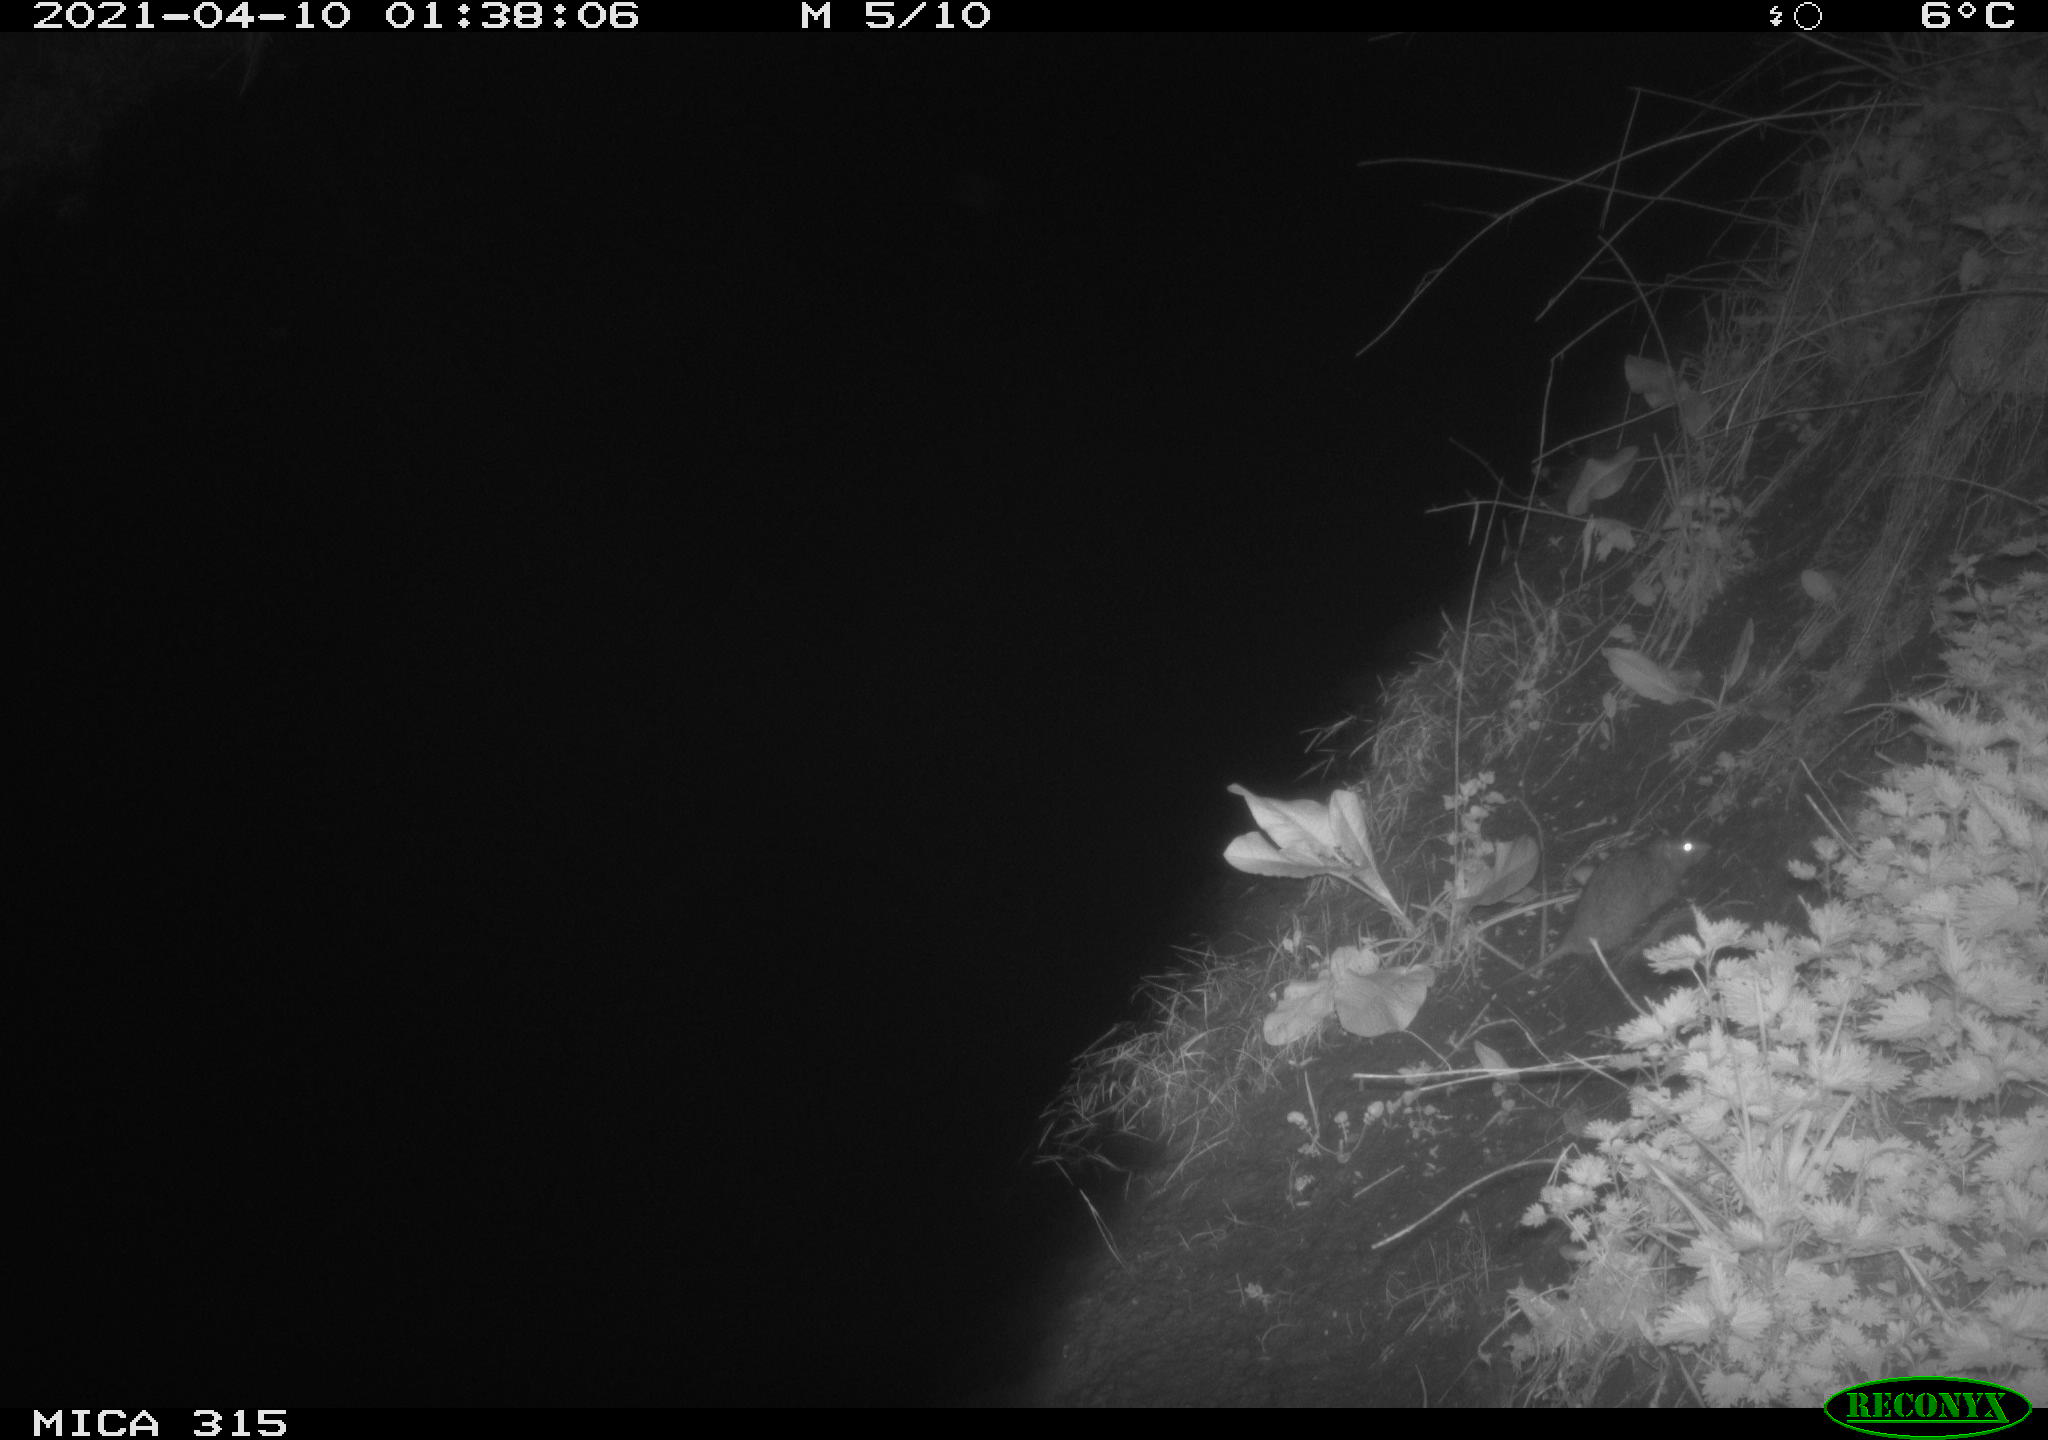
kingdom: Animalia
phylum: Chordata
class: Mammalia
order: Rodentia
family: Muridae
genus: Rattus
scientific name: Rattus norvegicus
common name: Brown rat
